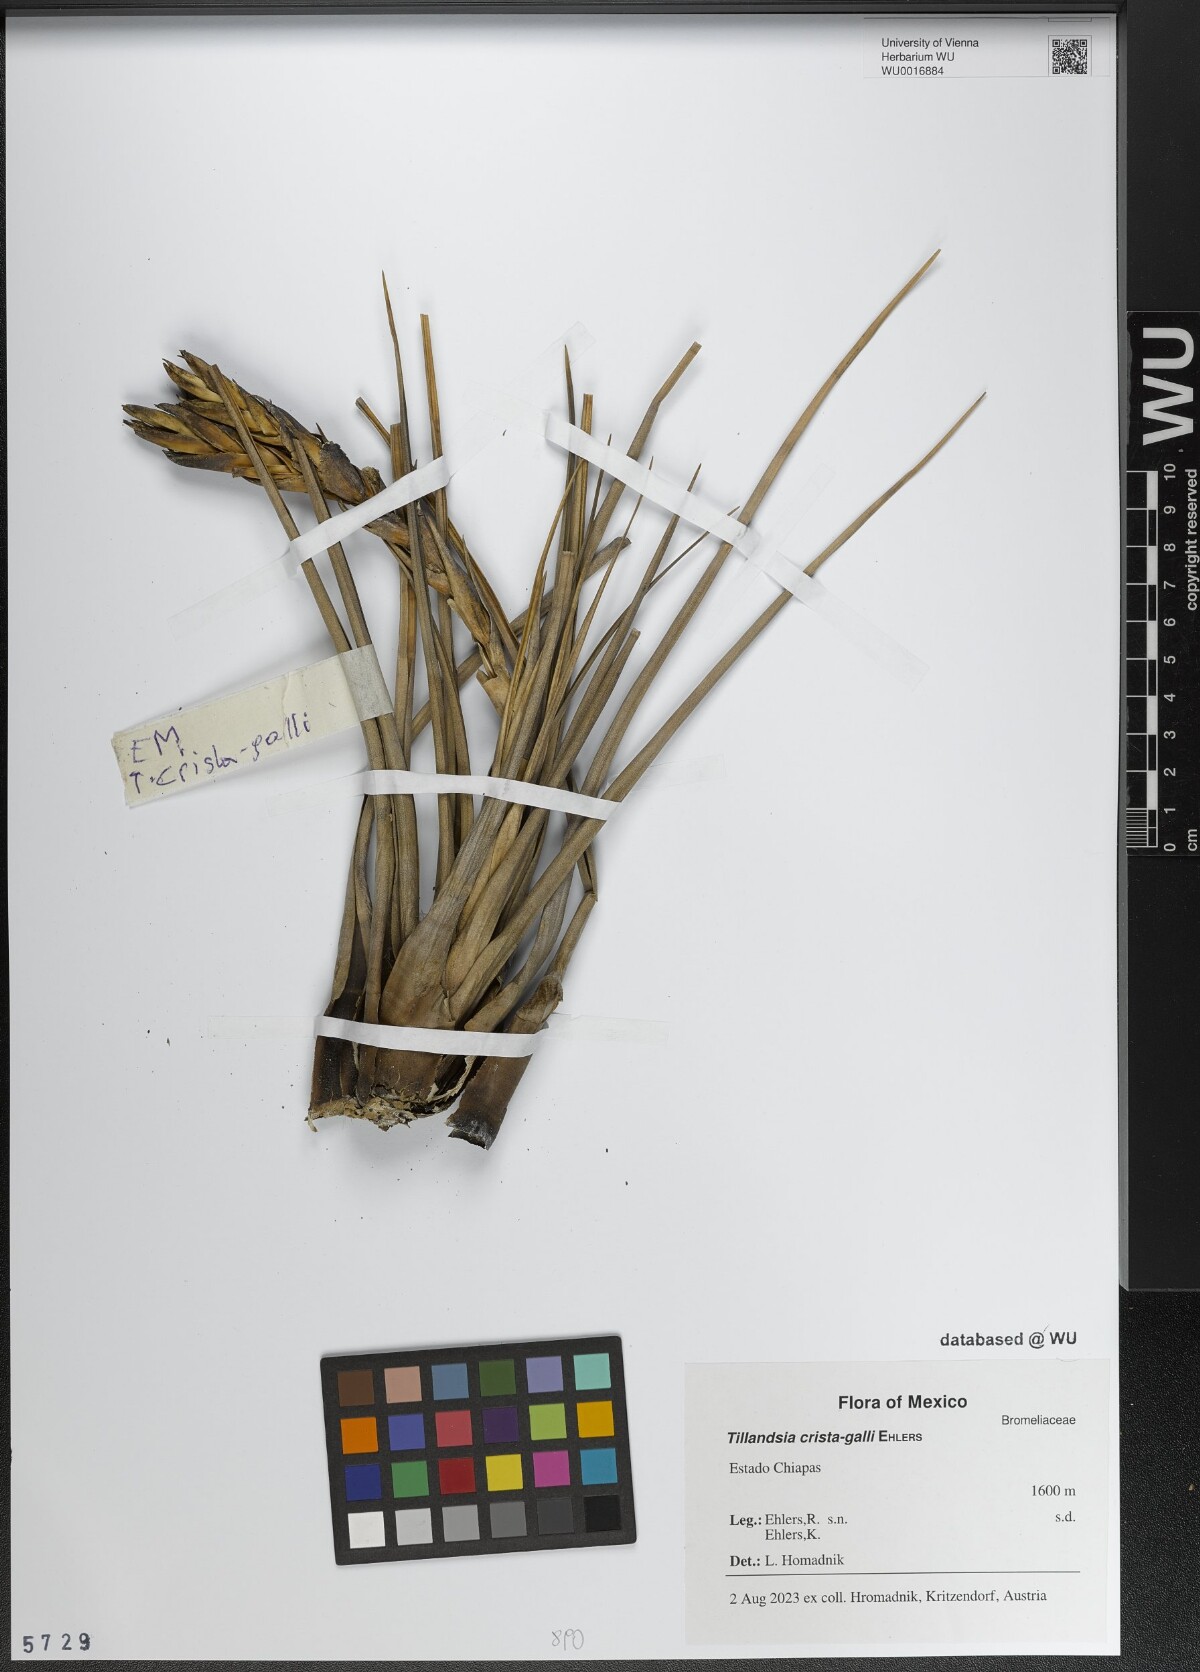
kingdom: Plantae
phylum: Tracheophyta
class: Liliopsida
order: Poales
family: Bromeliaceae
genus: Tillandsia
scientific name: Tillandsia crista-galli
